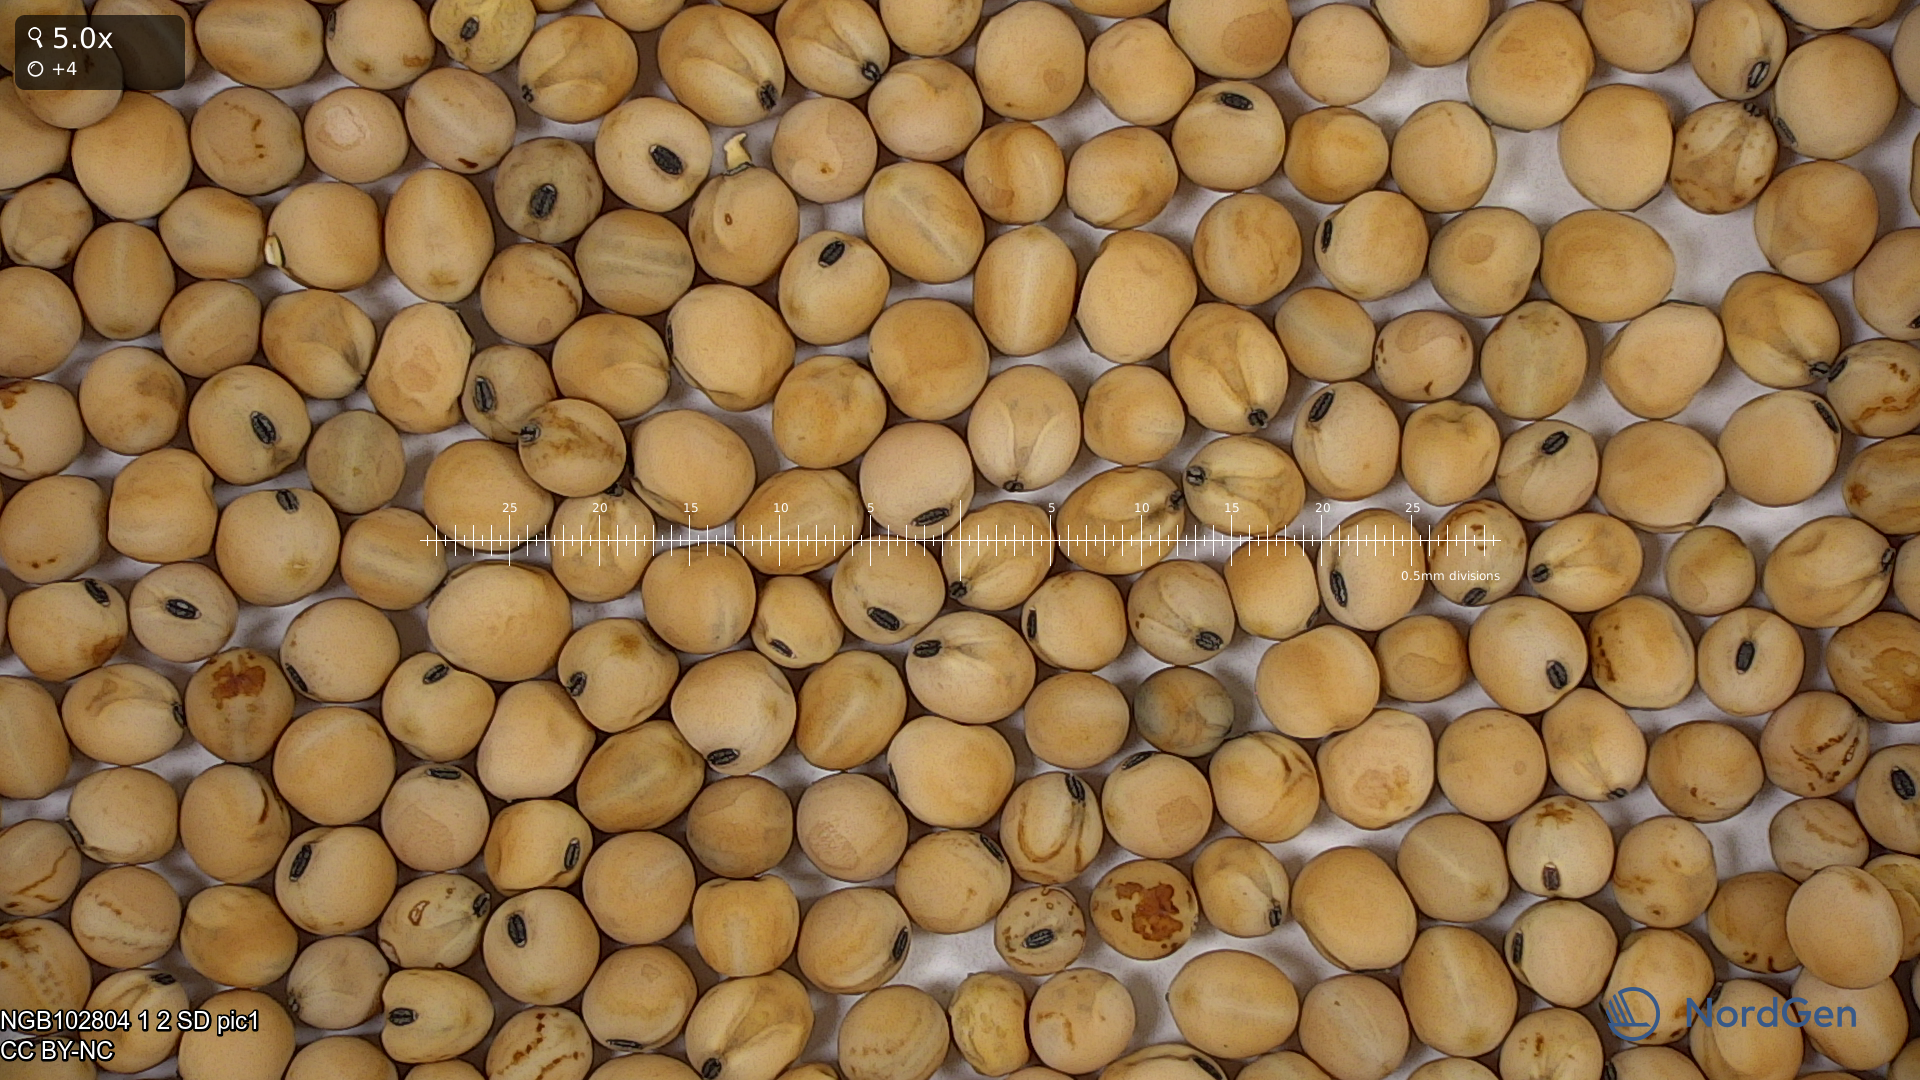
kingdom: Plantae
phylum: Tracheophyta
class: Magnoliopsida
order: Fabales
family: Fabaceae
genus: Lathyrus
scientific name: Lathyrus oleraceus
